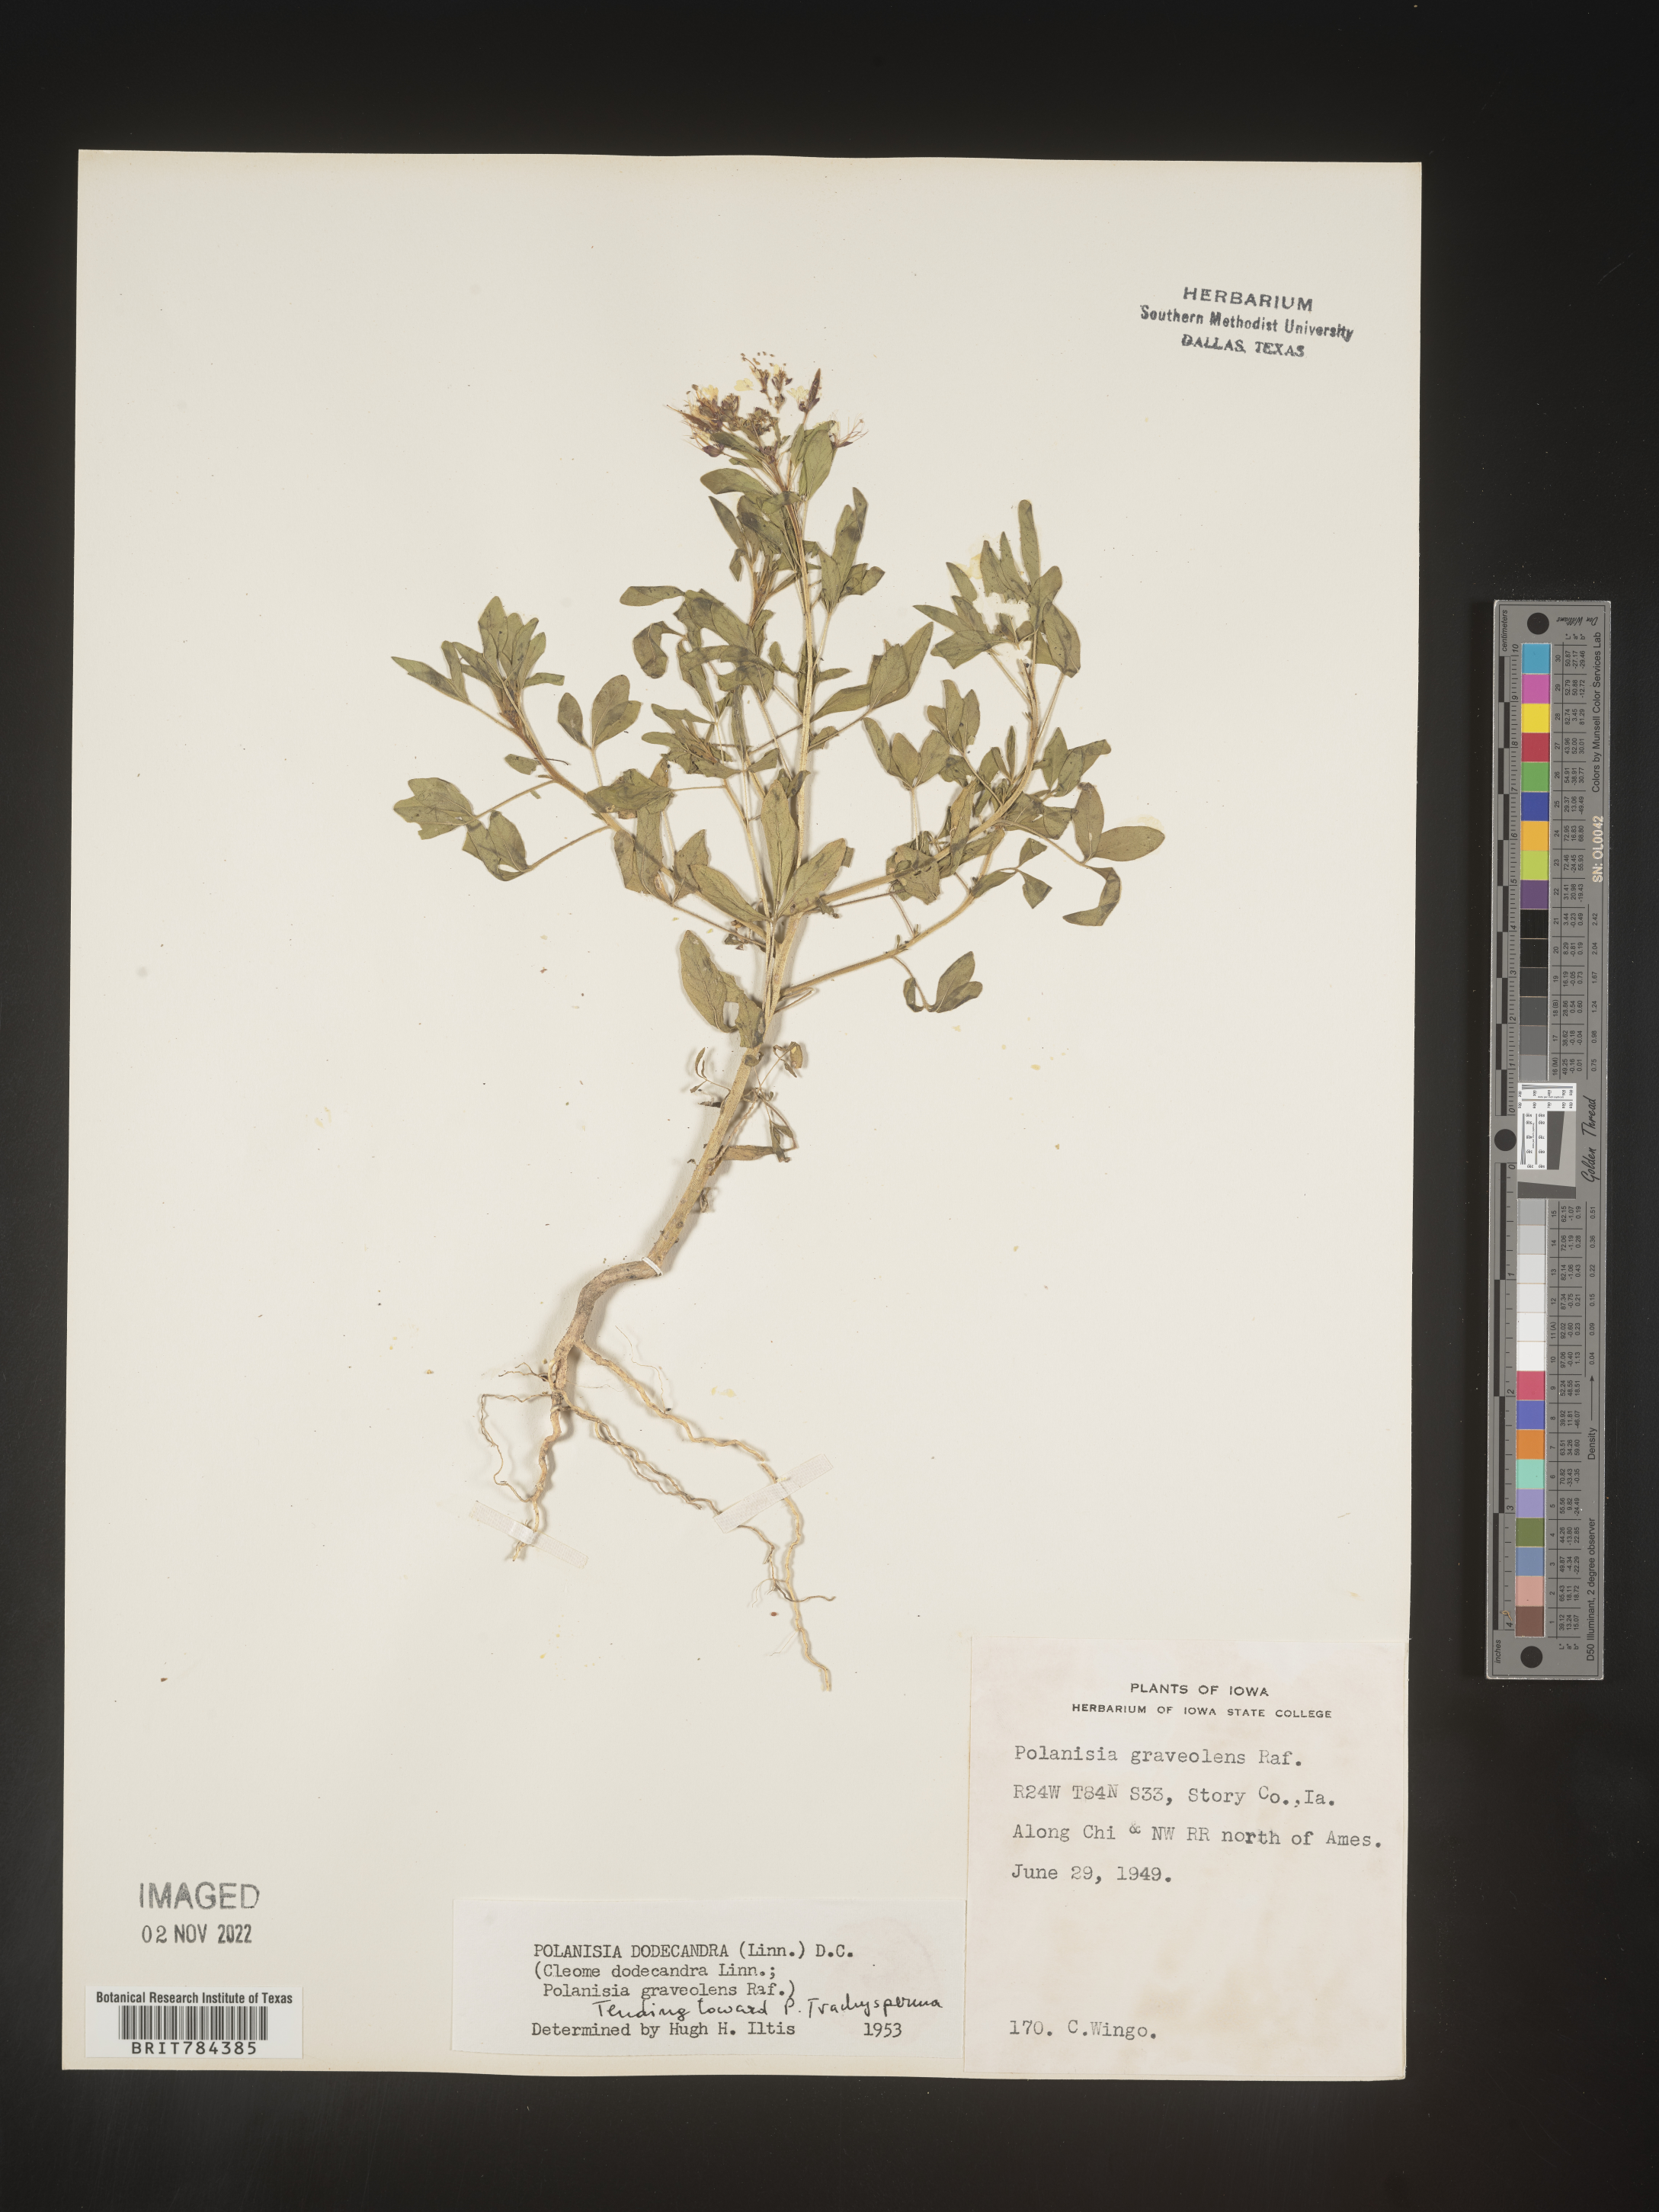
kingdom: Plantae
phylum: Tracheophyta
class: Magnoliopsida
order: Brassicales
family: Cleomaceae
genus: Polanisia
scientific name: Polanisia dodecandra
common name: Clammyweed
